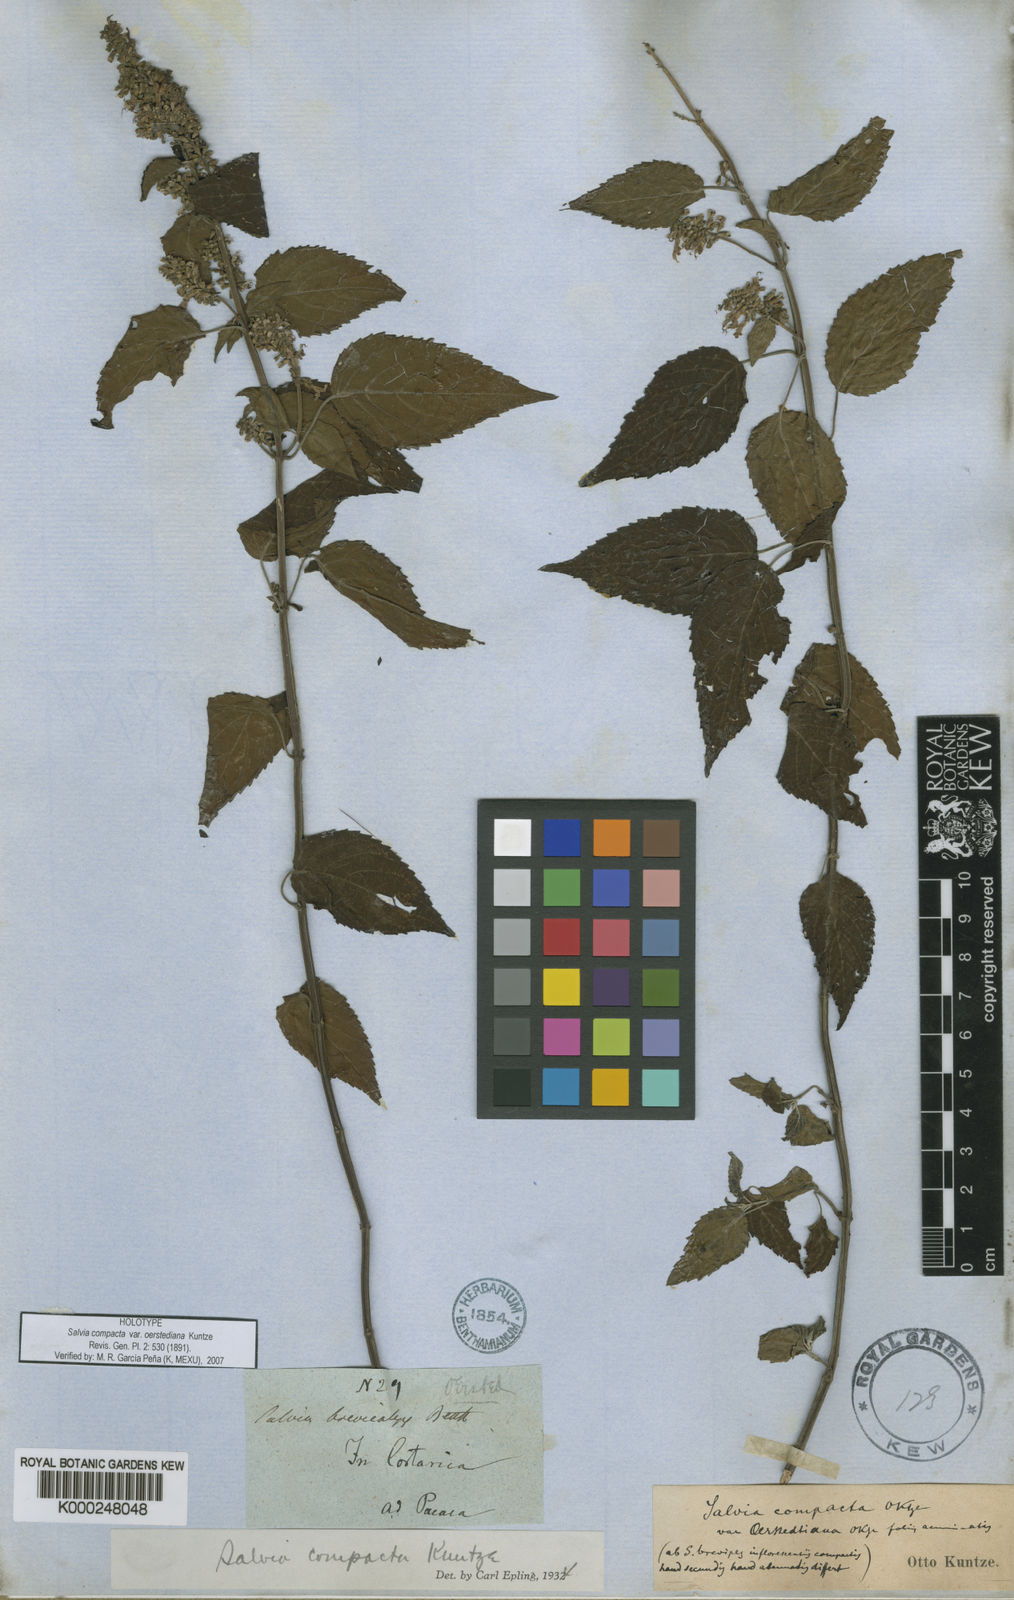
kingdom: Plantae
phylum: Tracheophyta
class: Magnoliopsida
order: Lamiales
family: Lamiaceae
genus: Salvia
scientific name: Salvia
